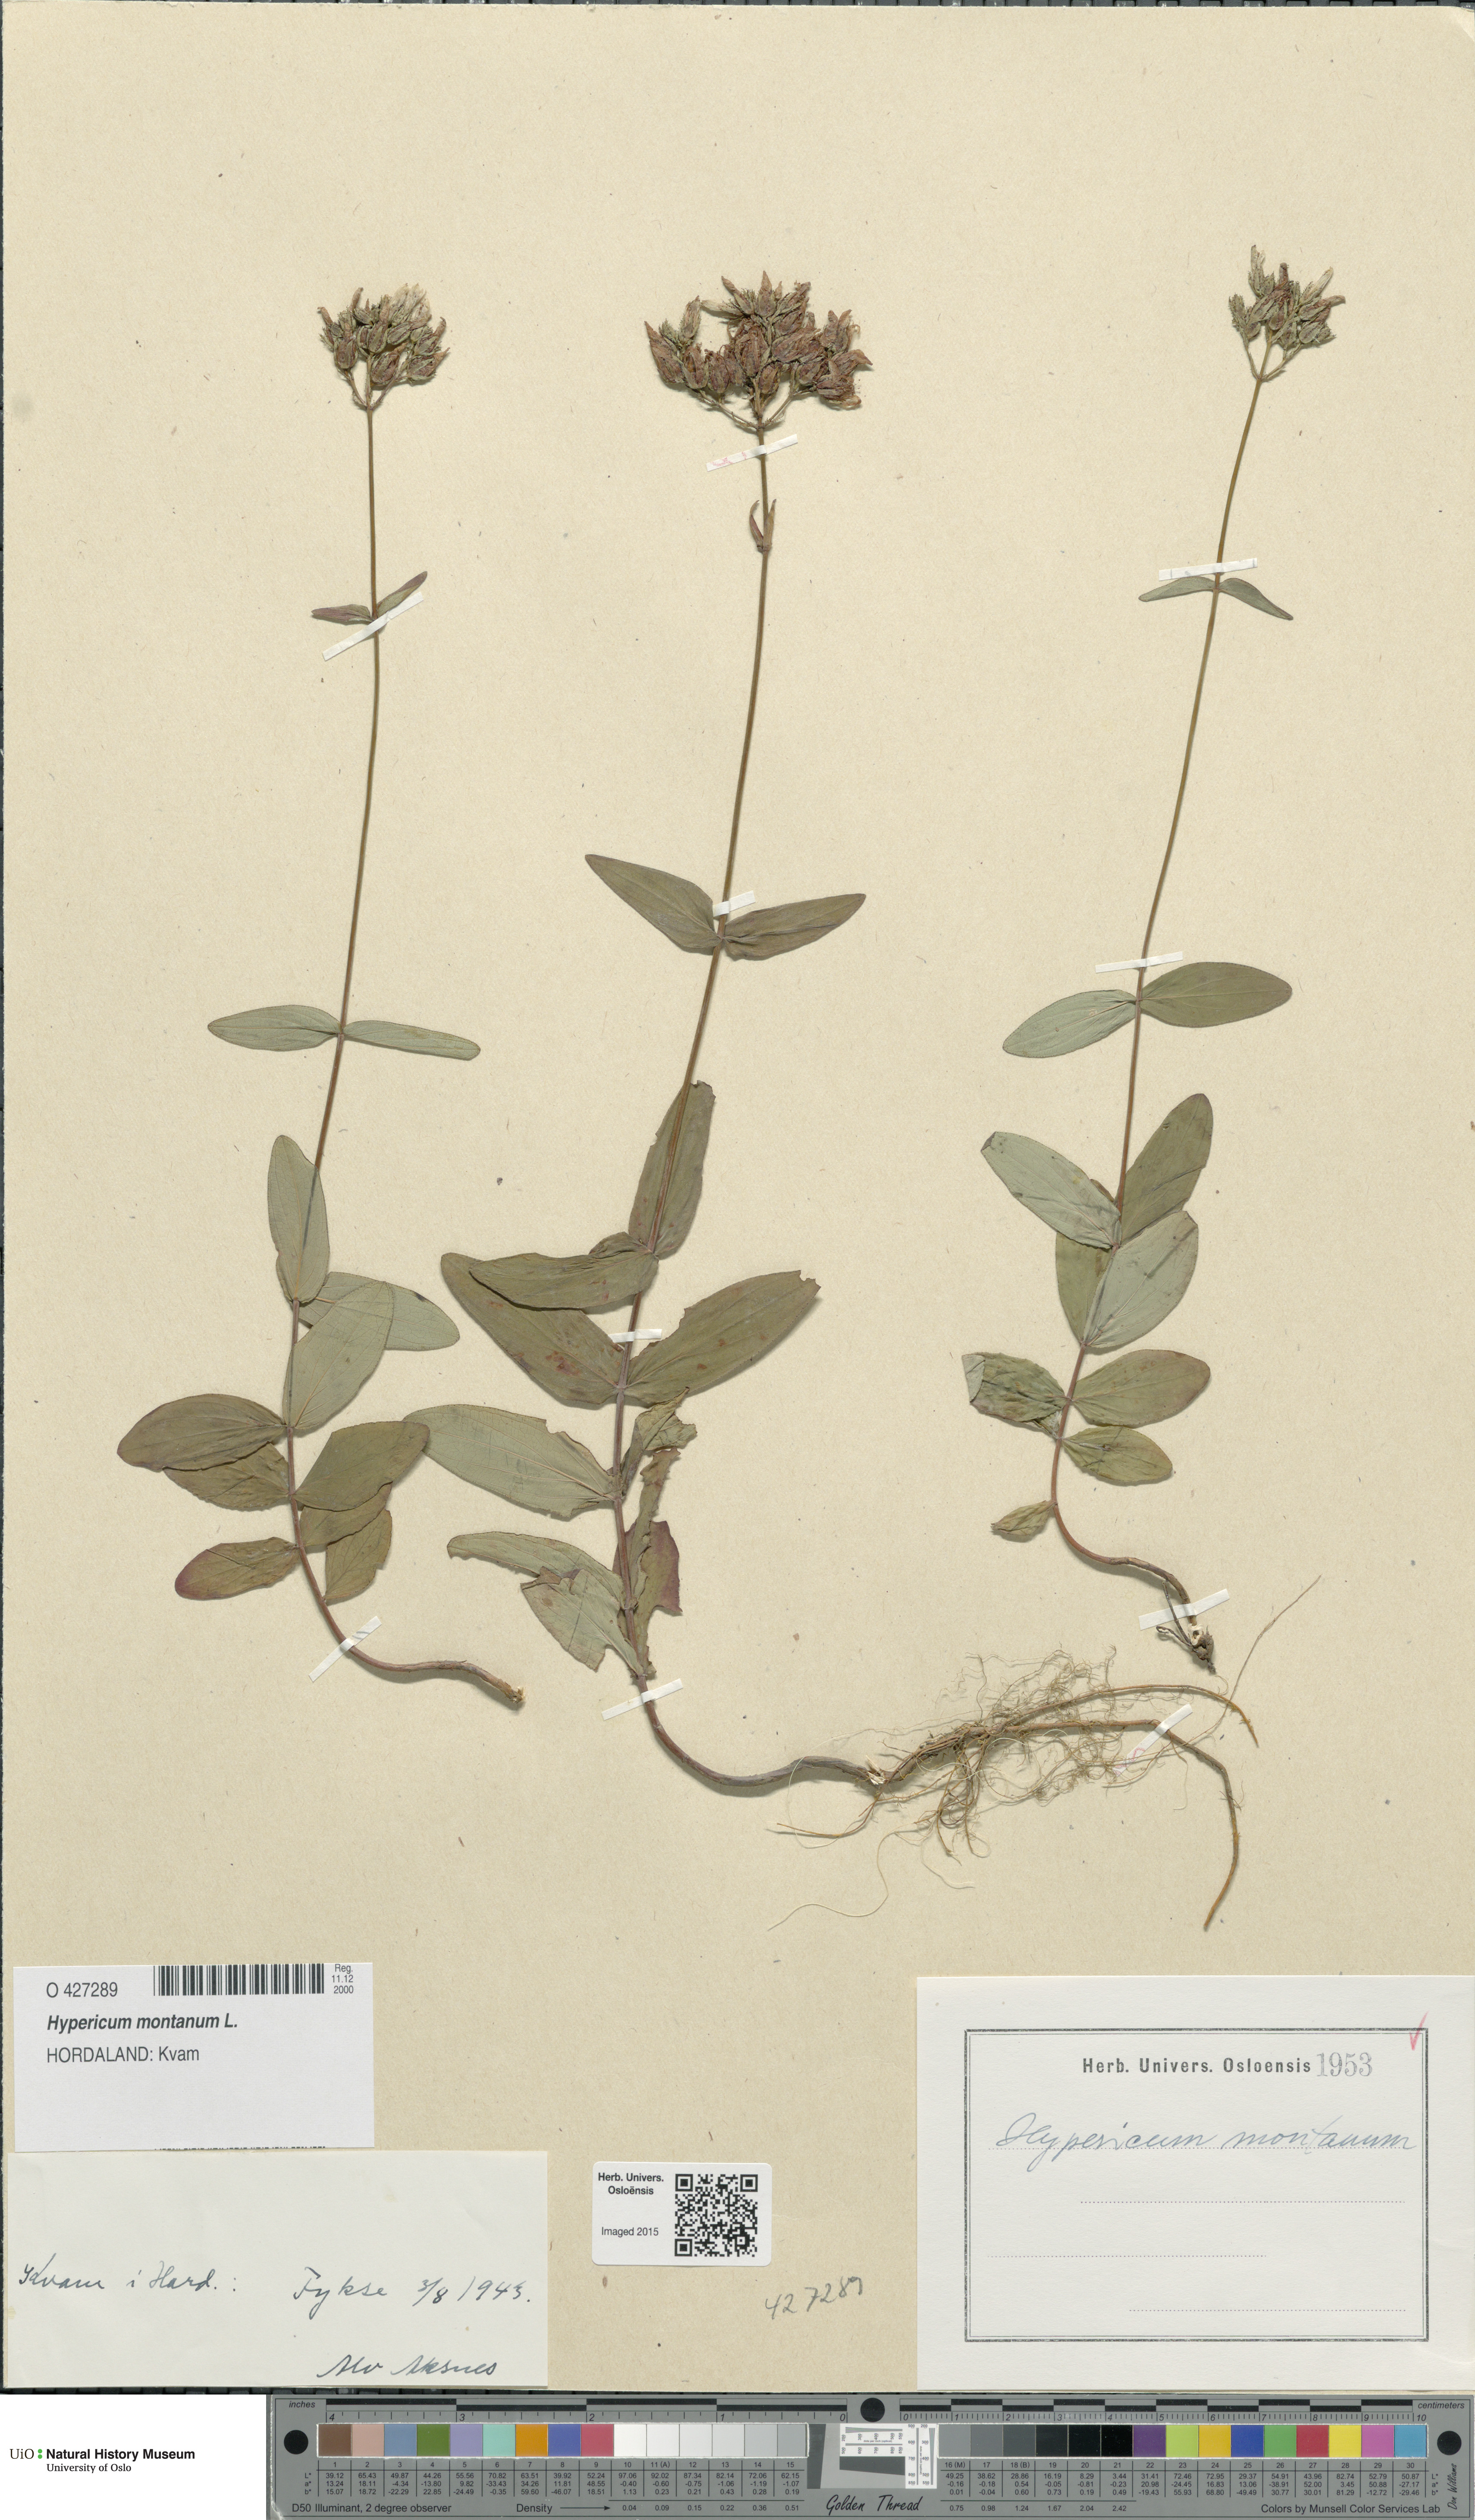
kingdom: Plantae
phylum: Tracheophyta
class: Magnoliopsida
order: Malpighiales
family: Hypericaceae
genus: Hypericum
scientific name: Hypericum montanum
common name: Pale st. john's-wort
